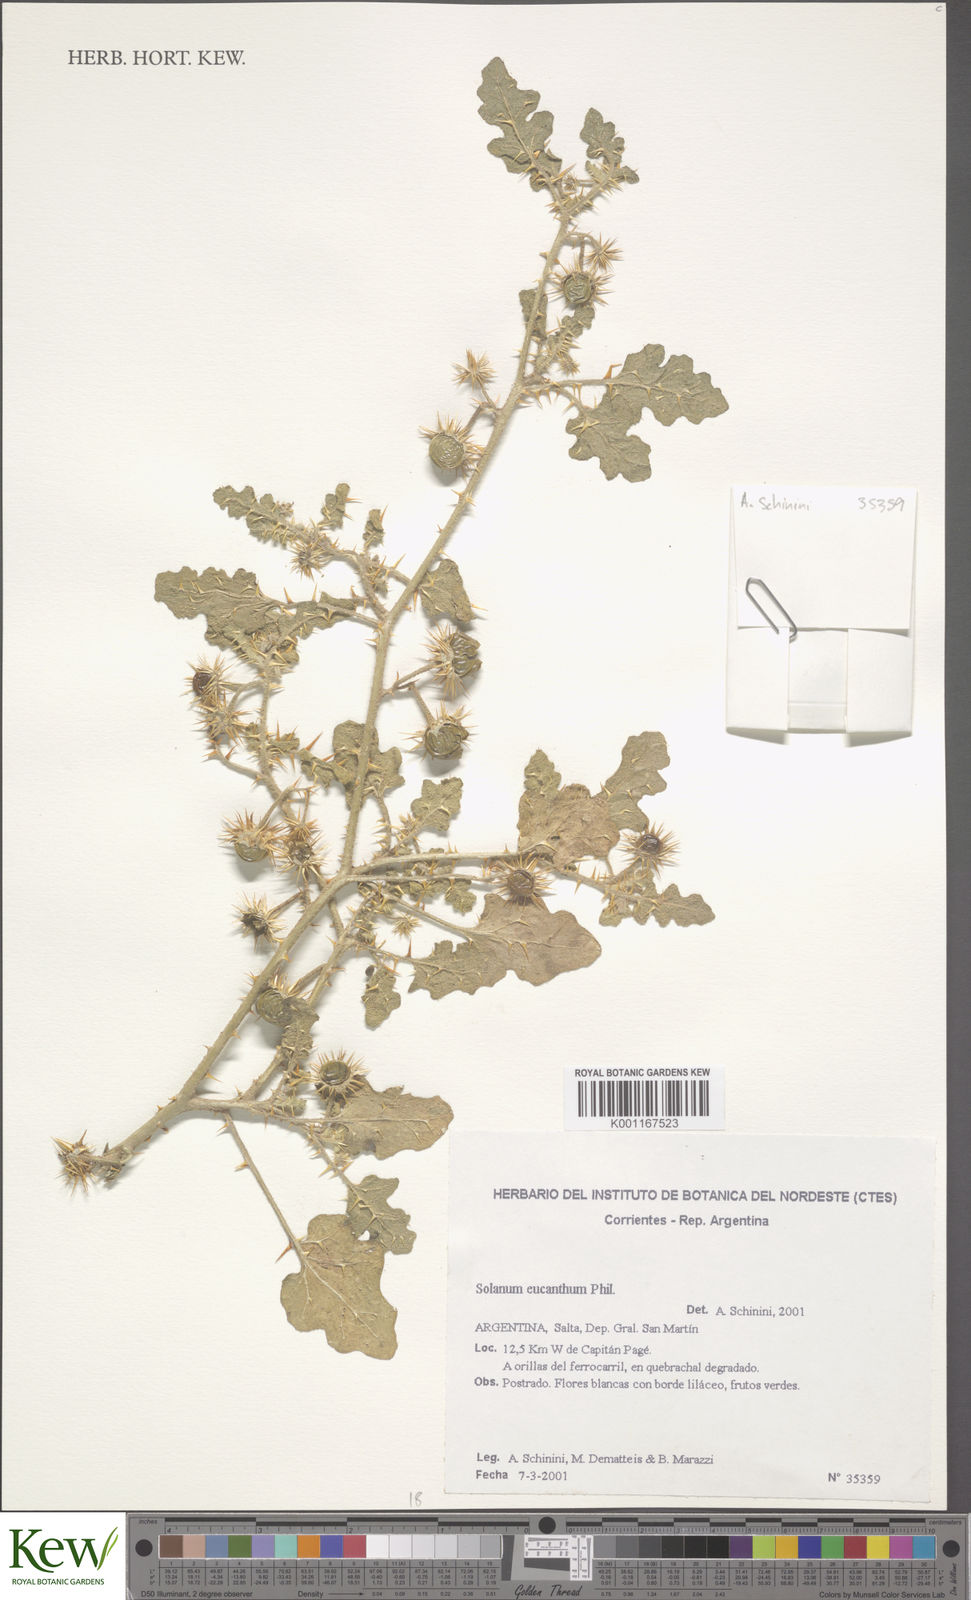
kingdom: Plantae
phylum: Tracheophyta
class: Magnoliopsida
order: Solanales
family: Solanaceae
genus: Solanum
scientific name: Solanum euacanthum
